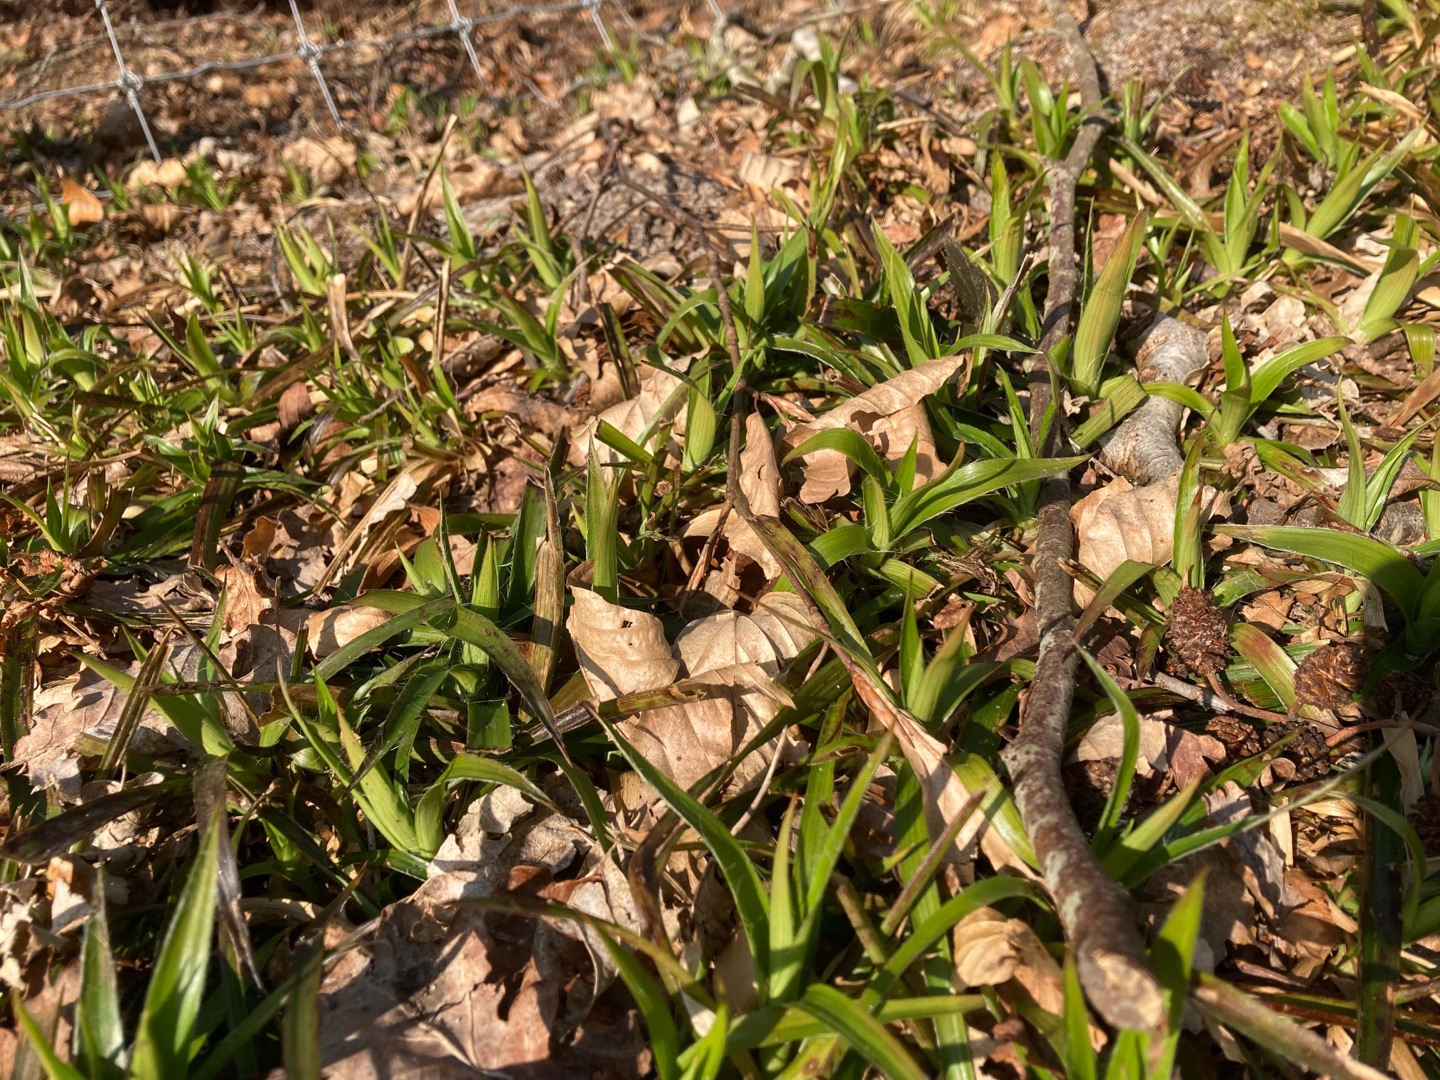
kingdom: Plantae
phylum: Tracheophyta
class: Liliopsida
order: Poales
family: Juncaceae
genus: Luzula
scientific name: Luzula sylvatica
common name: Stor frytle
